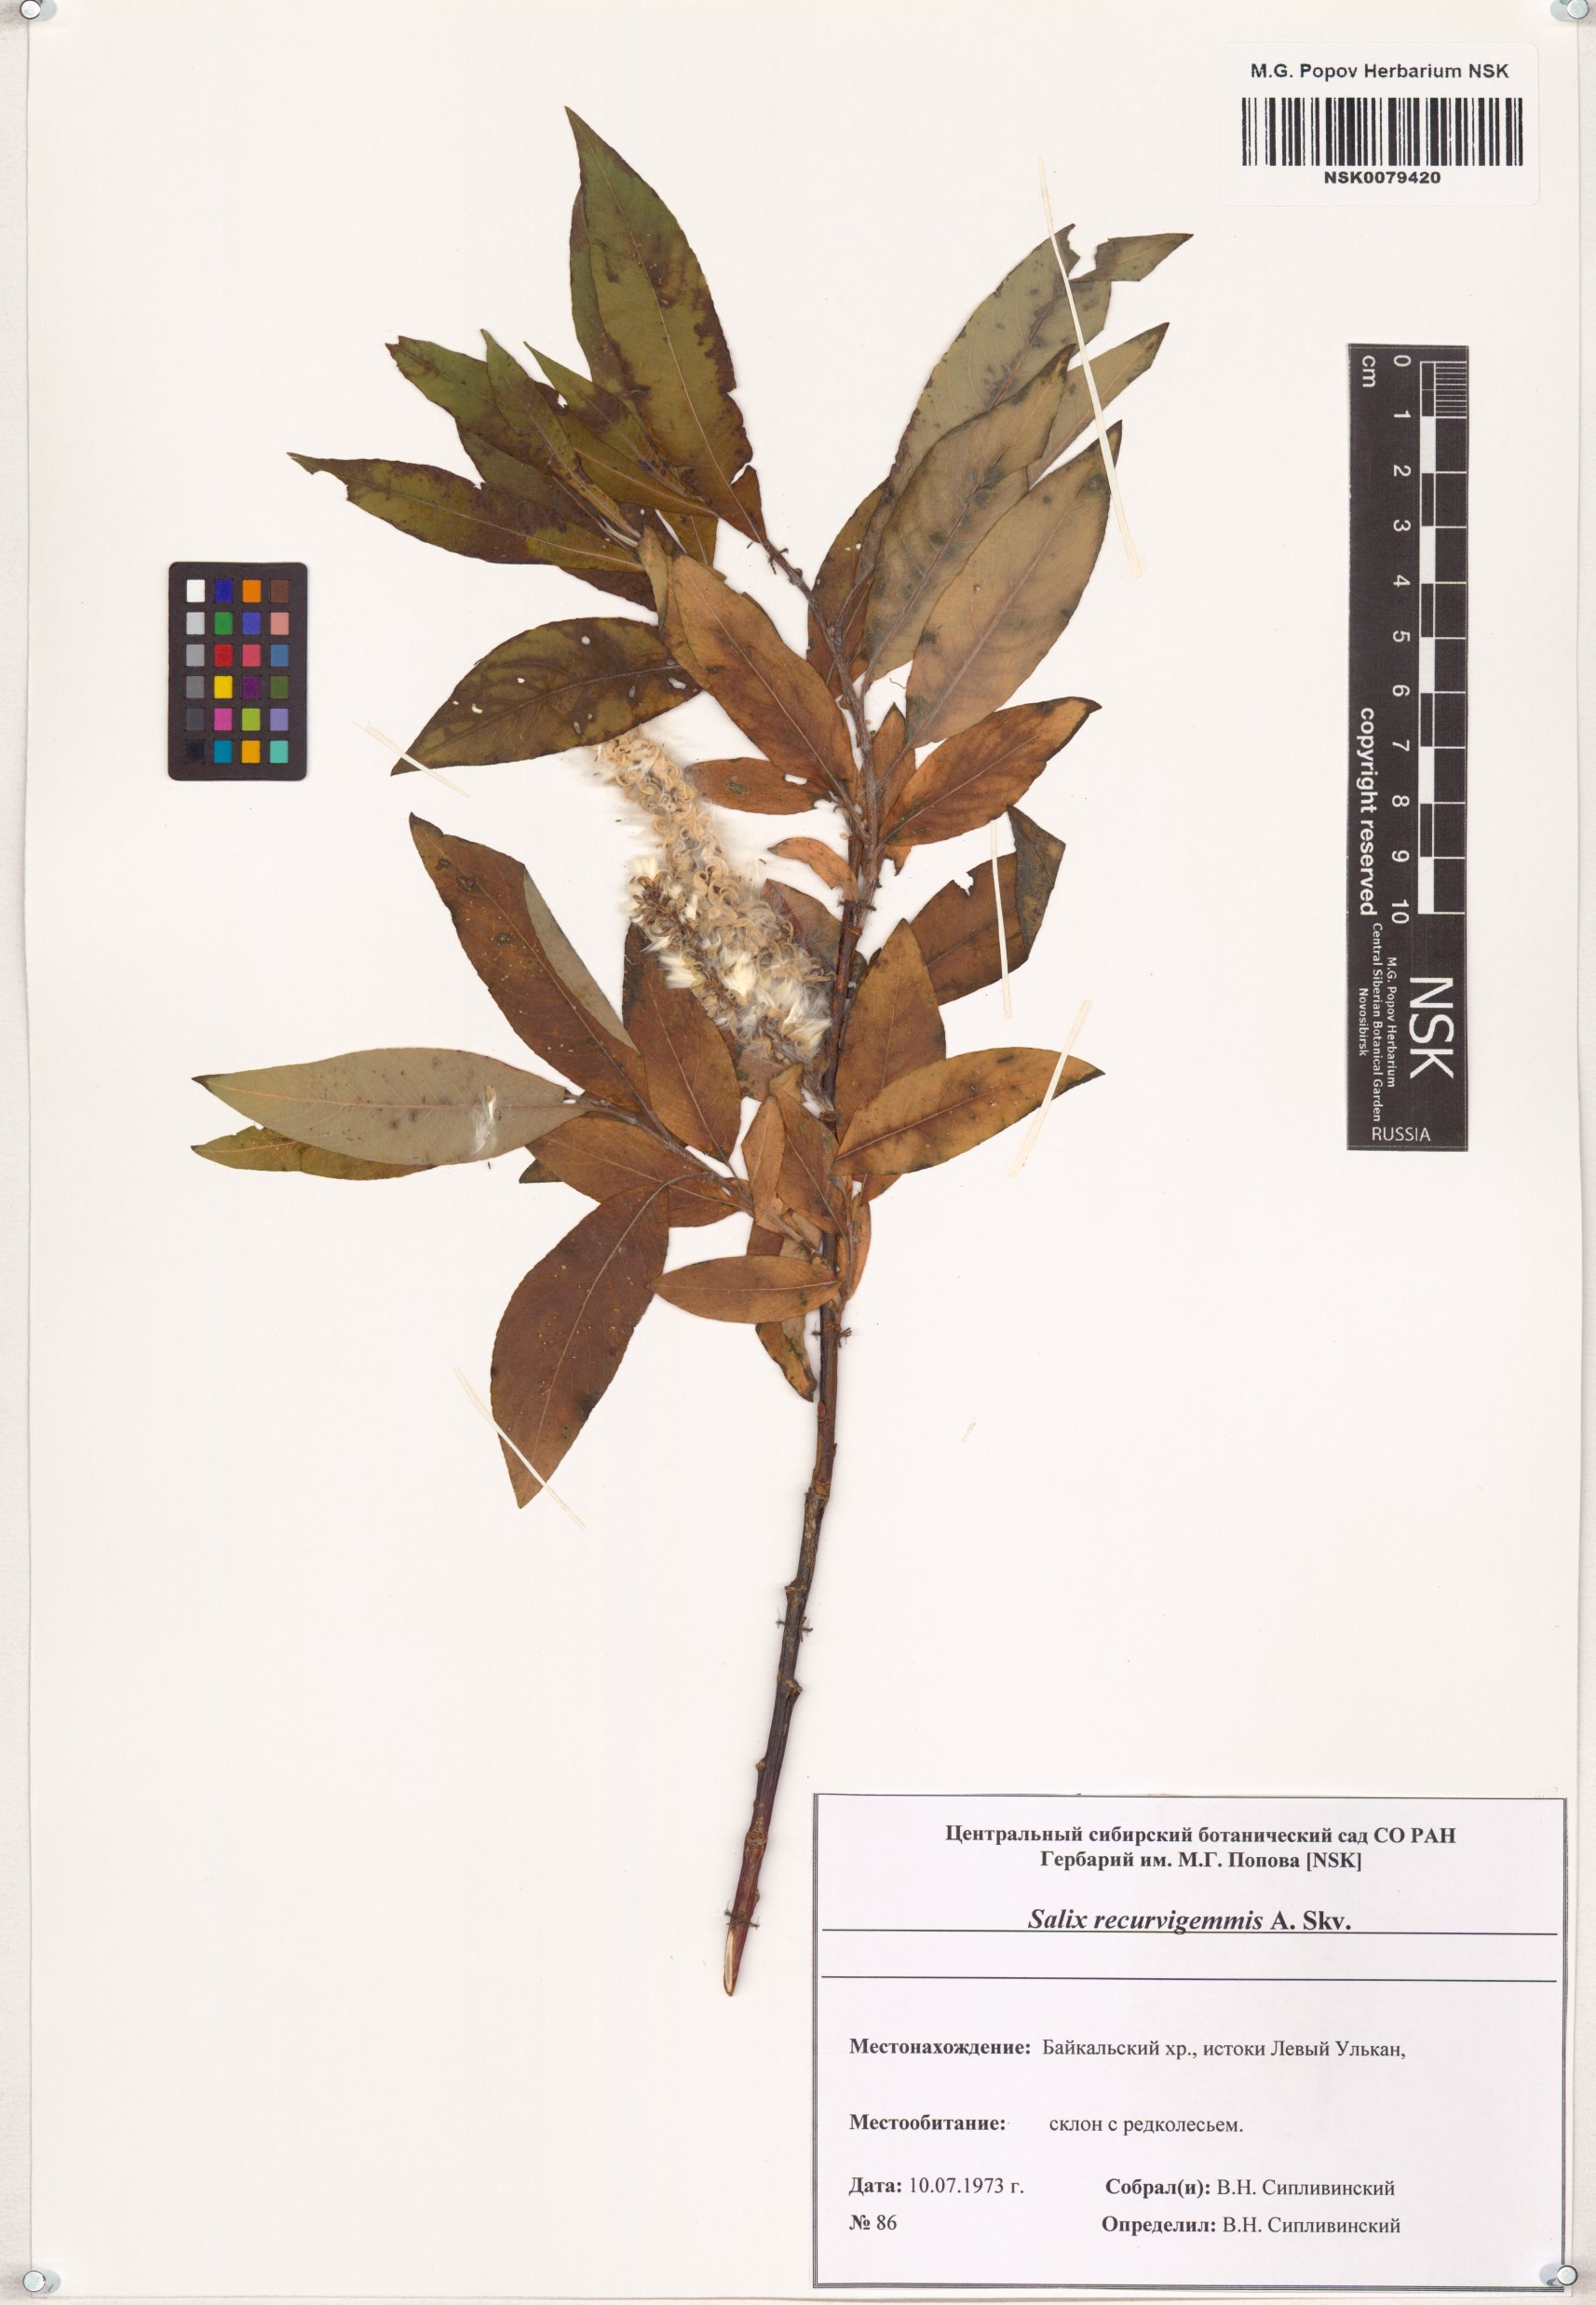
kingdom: Plantae
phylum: Tracheophyta
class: Magnoliopsida
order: Malpighiales
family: Salicaceae
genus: Salix
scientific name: Salix recurvigemmata
